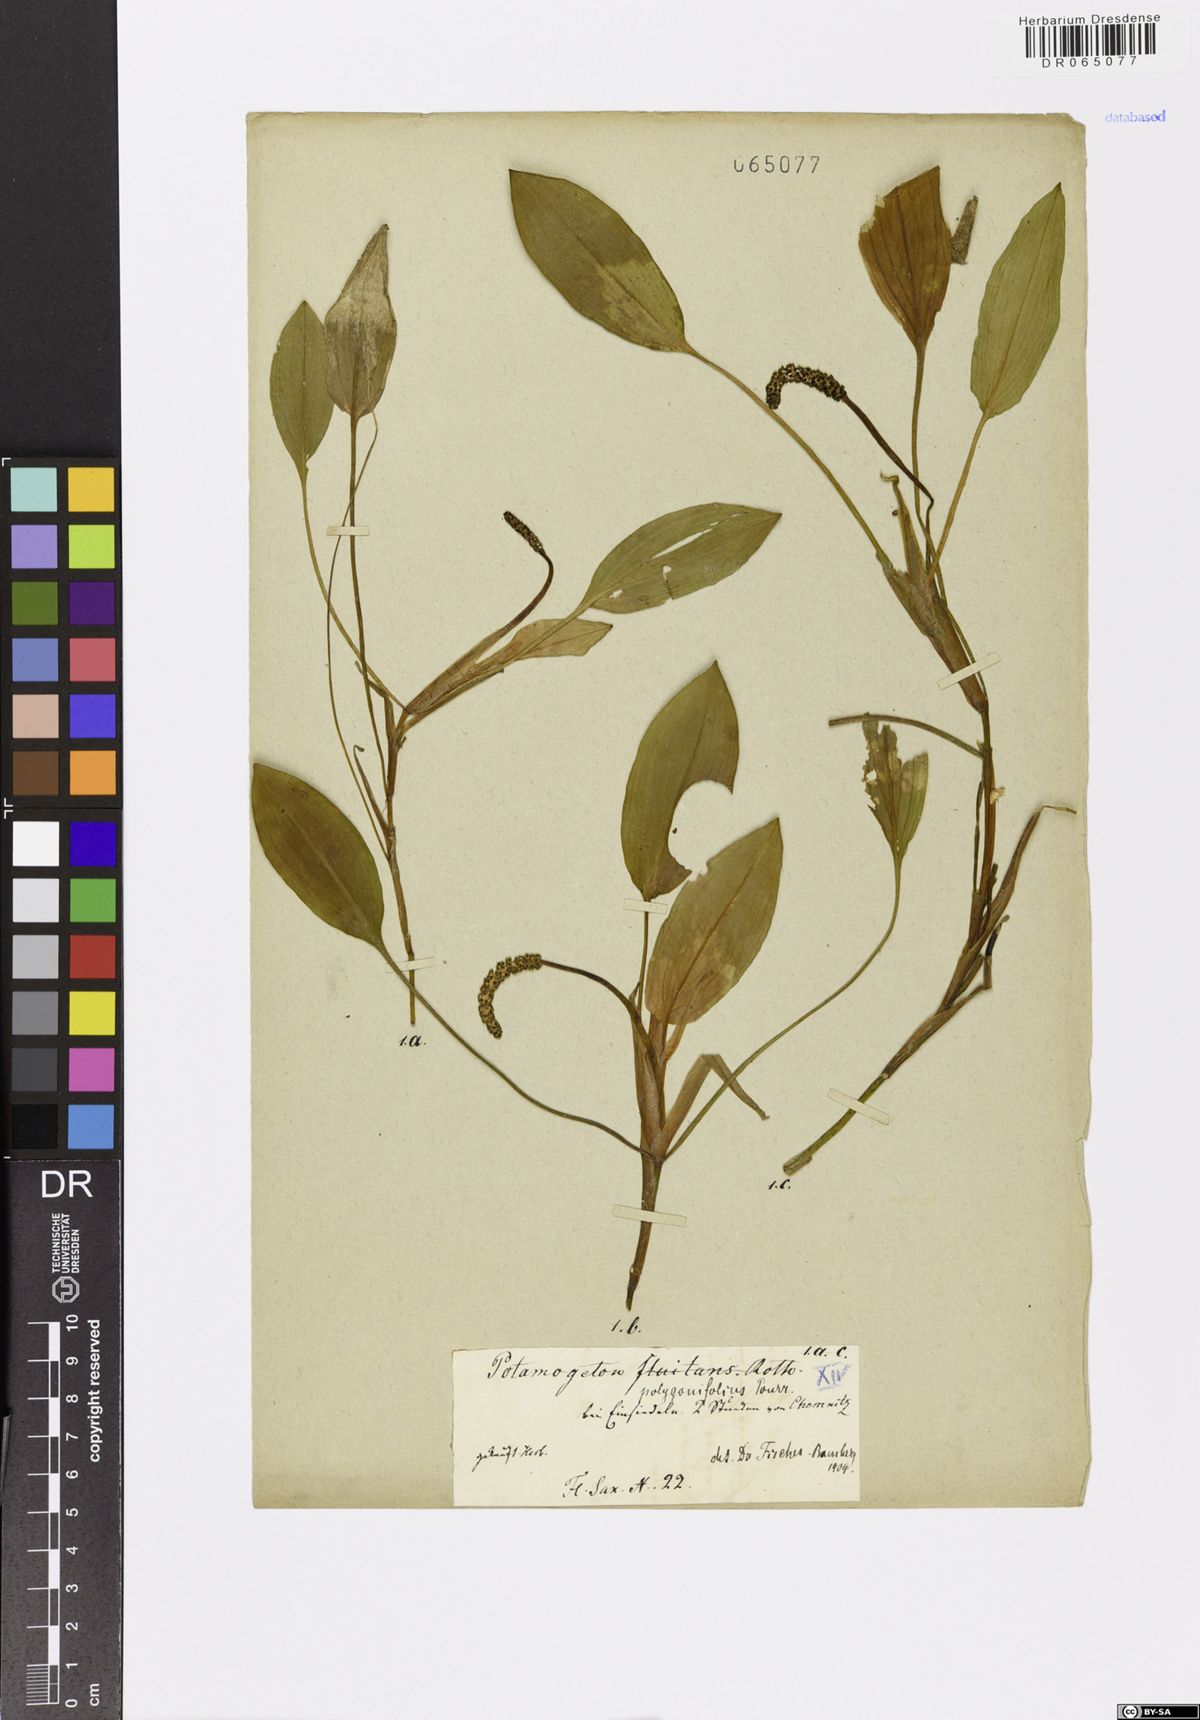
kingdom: Plantae
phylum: Tracheophyta
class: Liliopsida
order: Alismatales
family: Potamogetonaceae
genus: Potamogeton
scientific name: Potamogeton polygonifolius
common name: Bog pondweed
